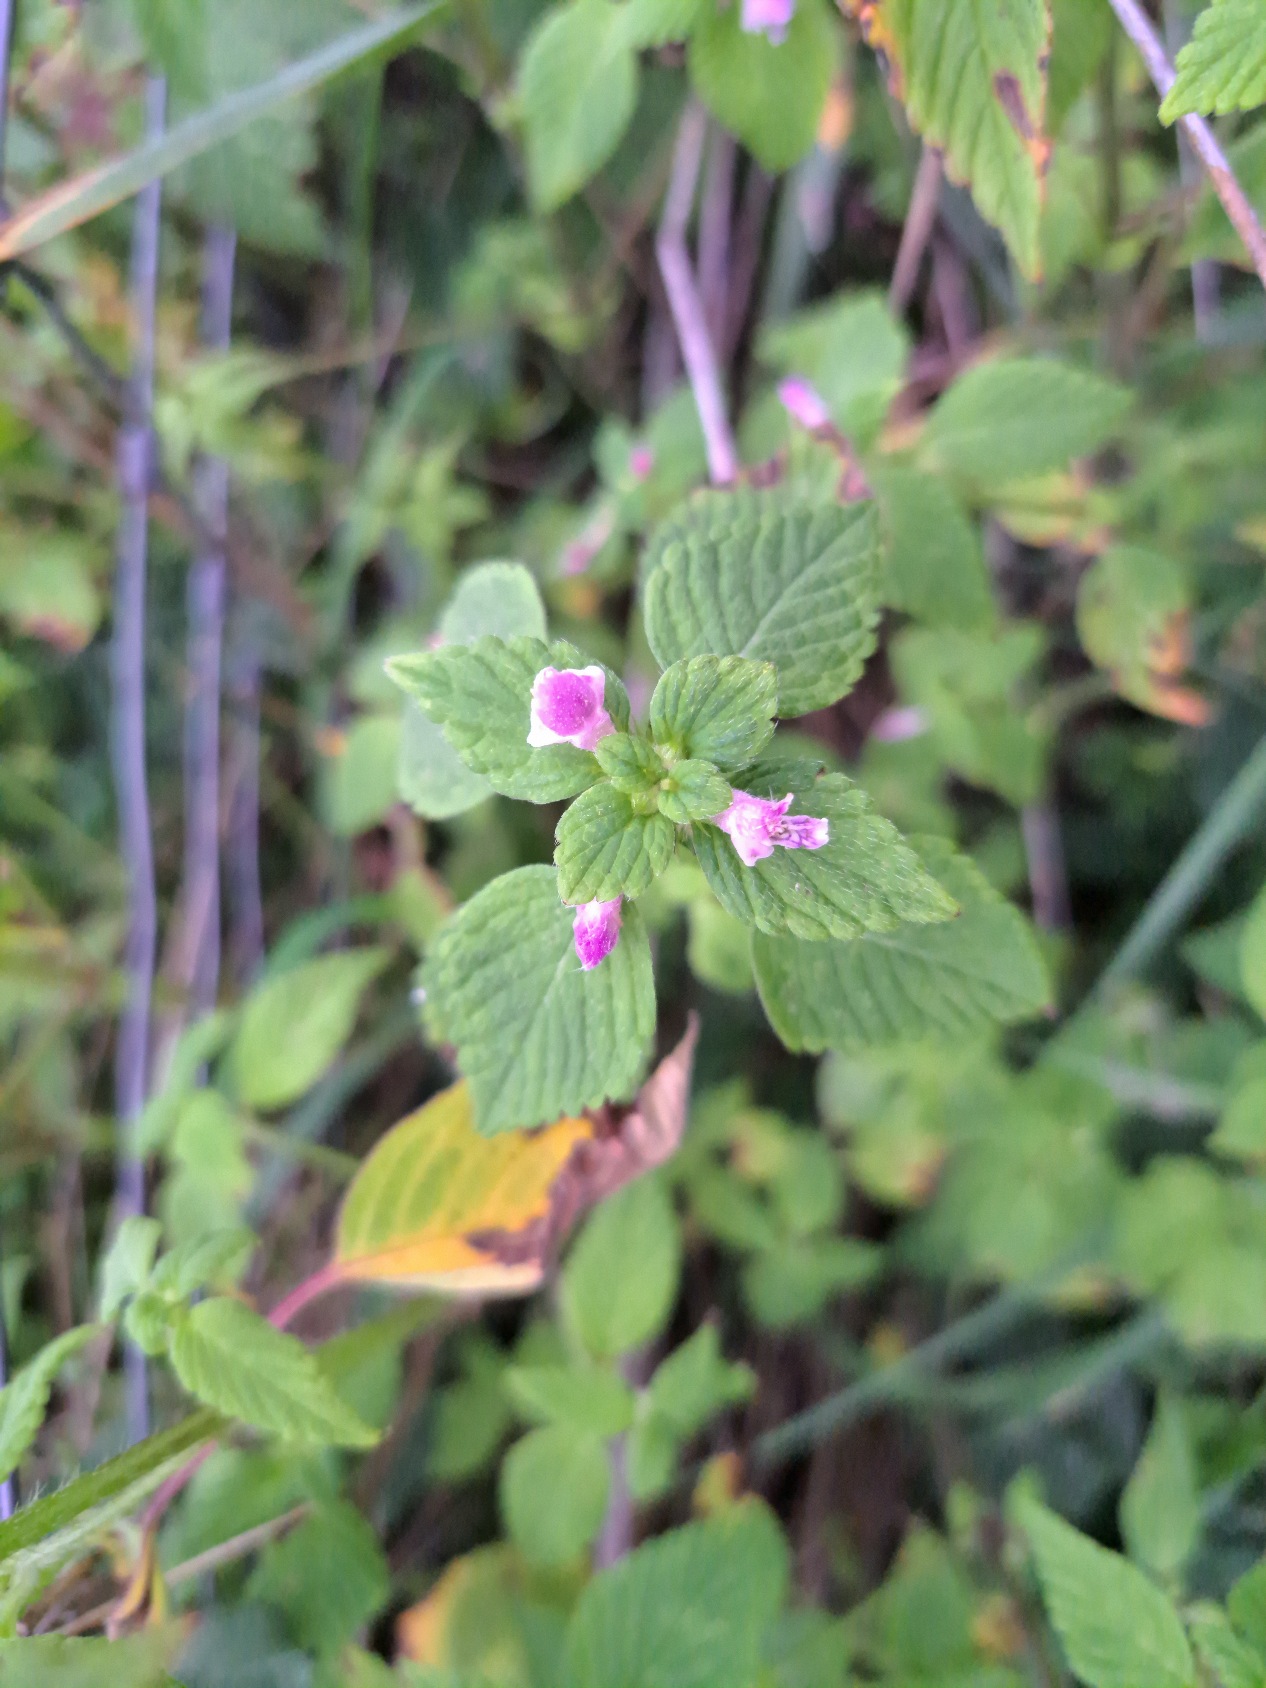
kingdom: Plantae
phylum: Tracheophyta
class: Magnoliopsida
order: Lamiales
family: Lamiaceae
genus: Galeopsis
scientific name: Galeopsis bifida
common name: Skov-hanekro
